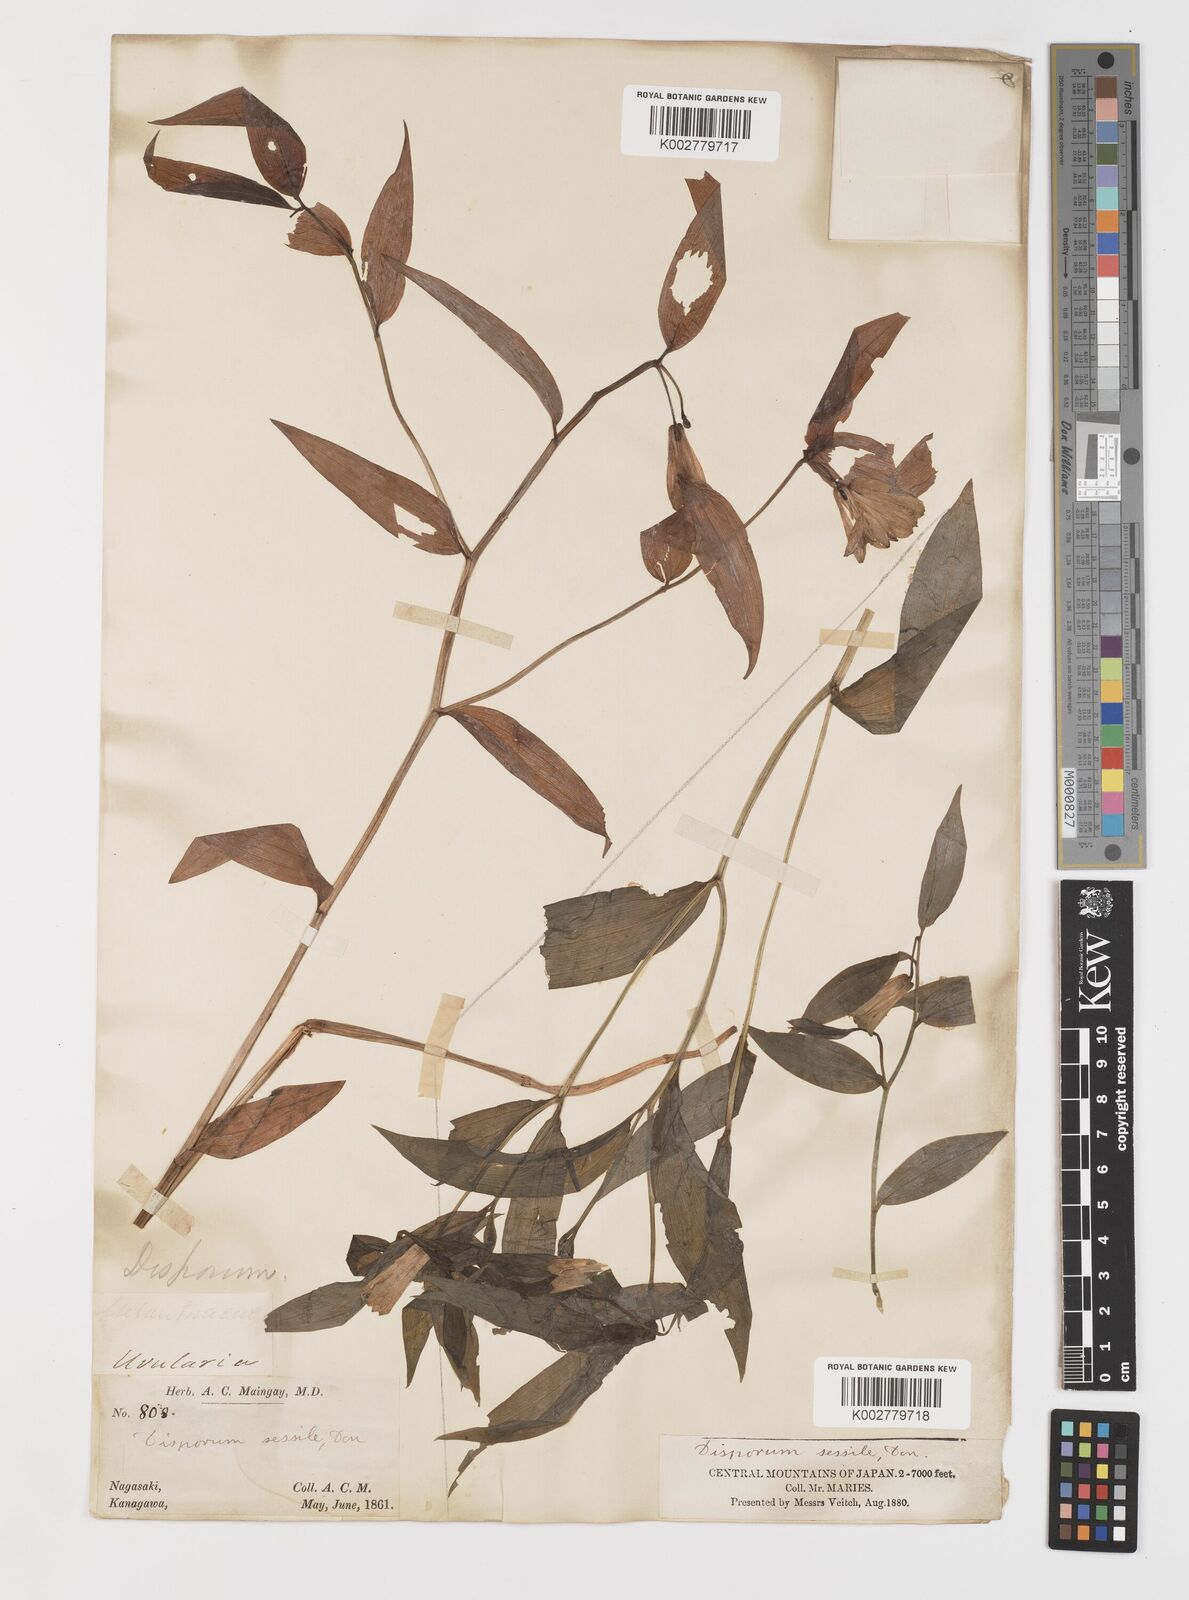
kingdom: Plantae
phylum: Tracheophyta
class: Liliopsida
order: Liliales
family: Colchicaceae
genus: Disporum
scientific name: Disporum sessile
